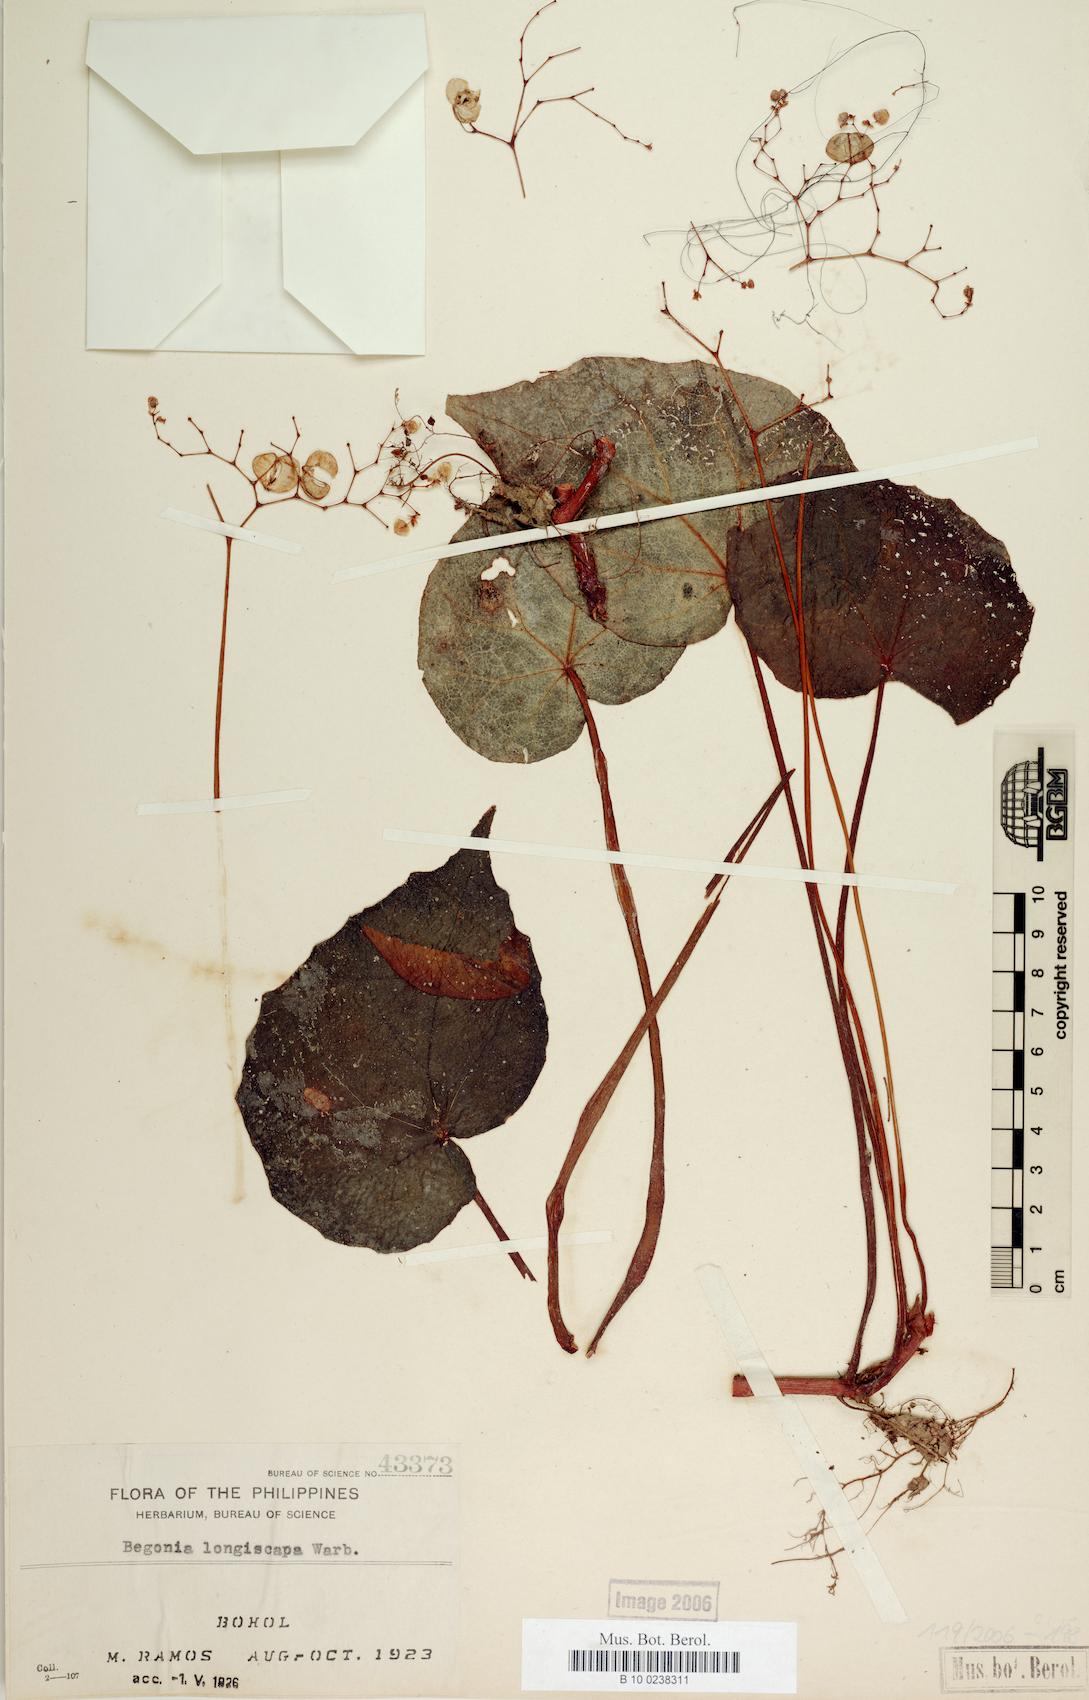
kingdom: Plantae
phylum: Tracheophyta
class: Magnoliopsida
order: Cucurbitales
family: Begoniaceae
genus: Begonia
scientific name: Begonia longiscapa
